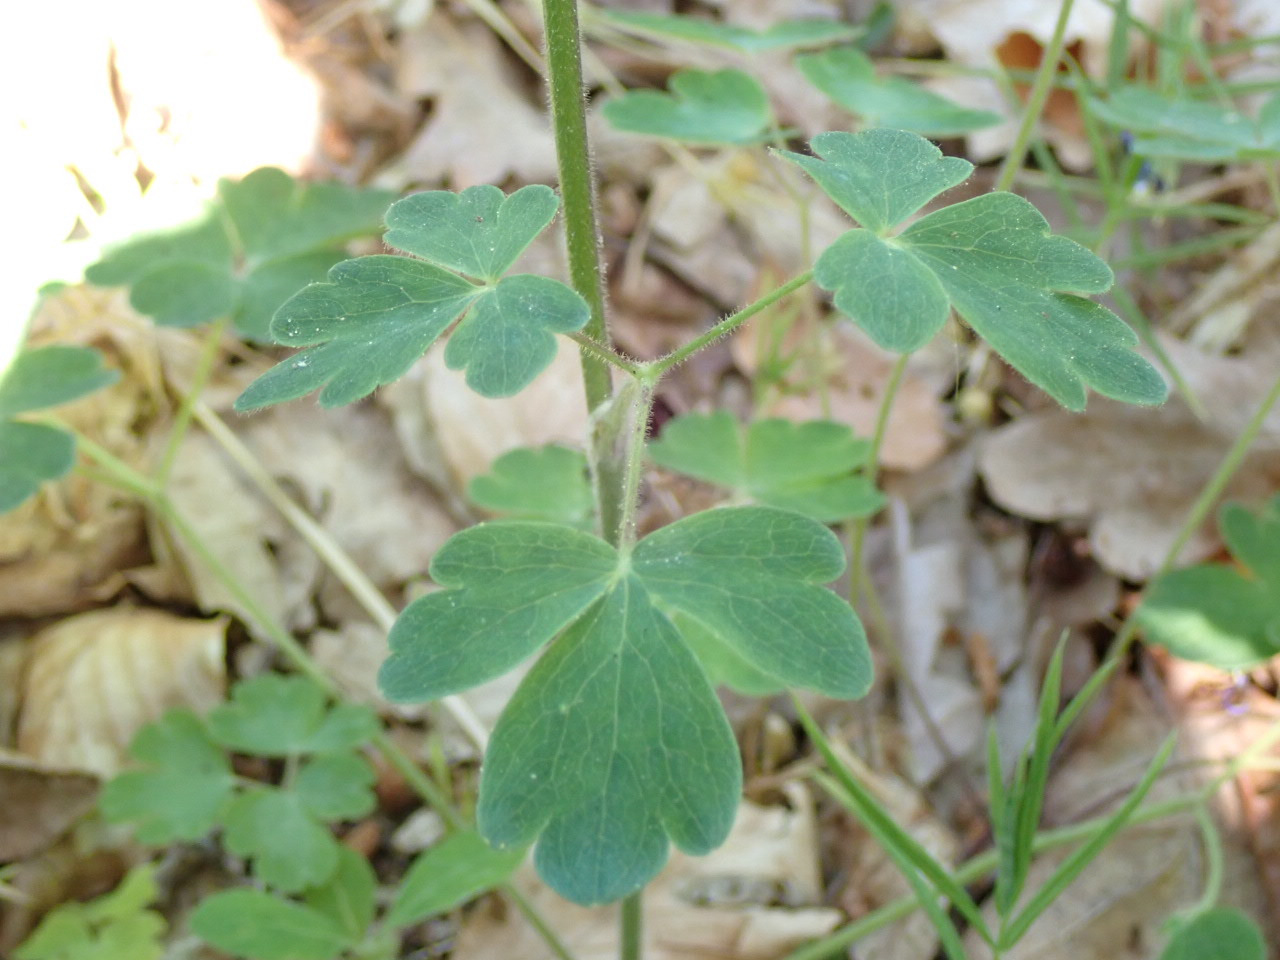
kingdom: Plantae
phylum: Tracheophyta
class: Magnoliopsida
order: Ranunculales
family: Ranunculaceae
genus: Aquilegia
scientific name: Aquilegia vulgaris
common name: Akeleje
